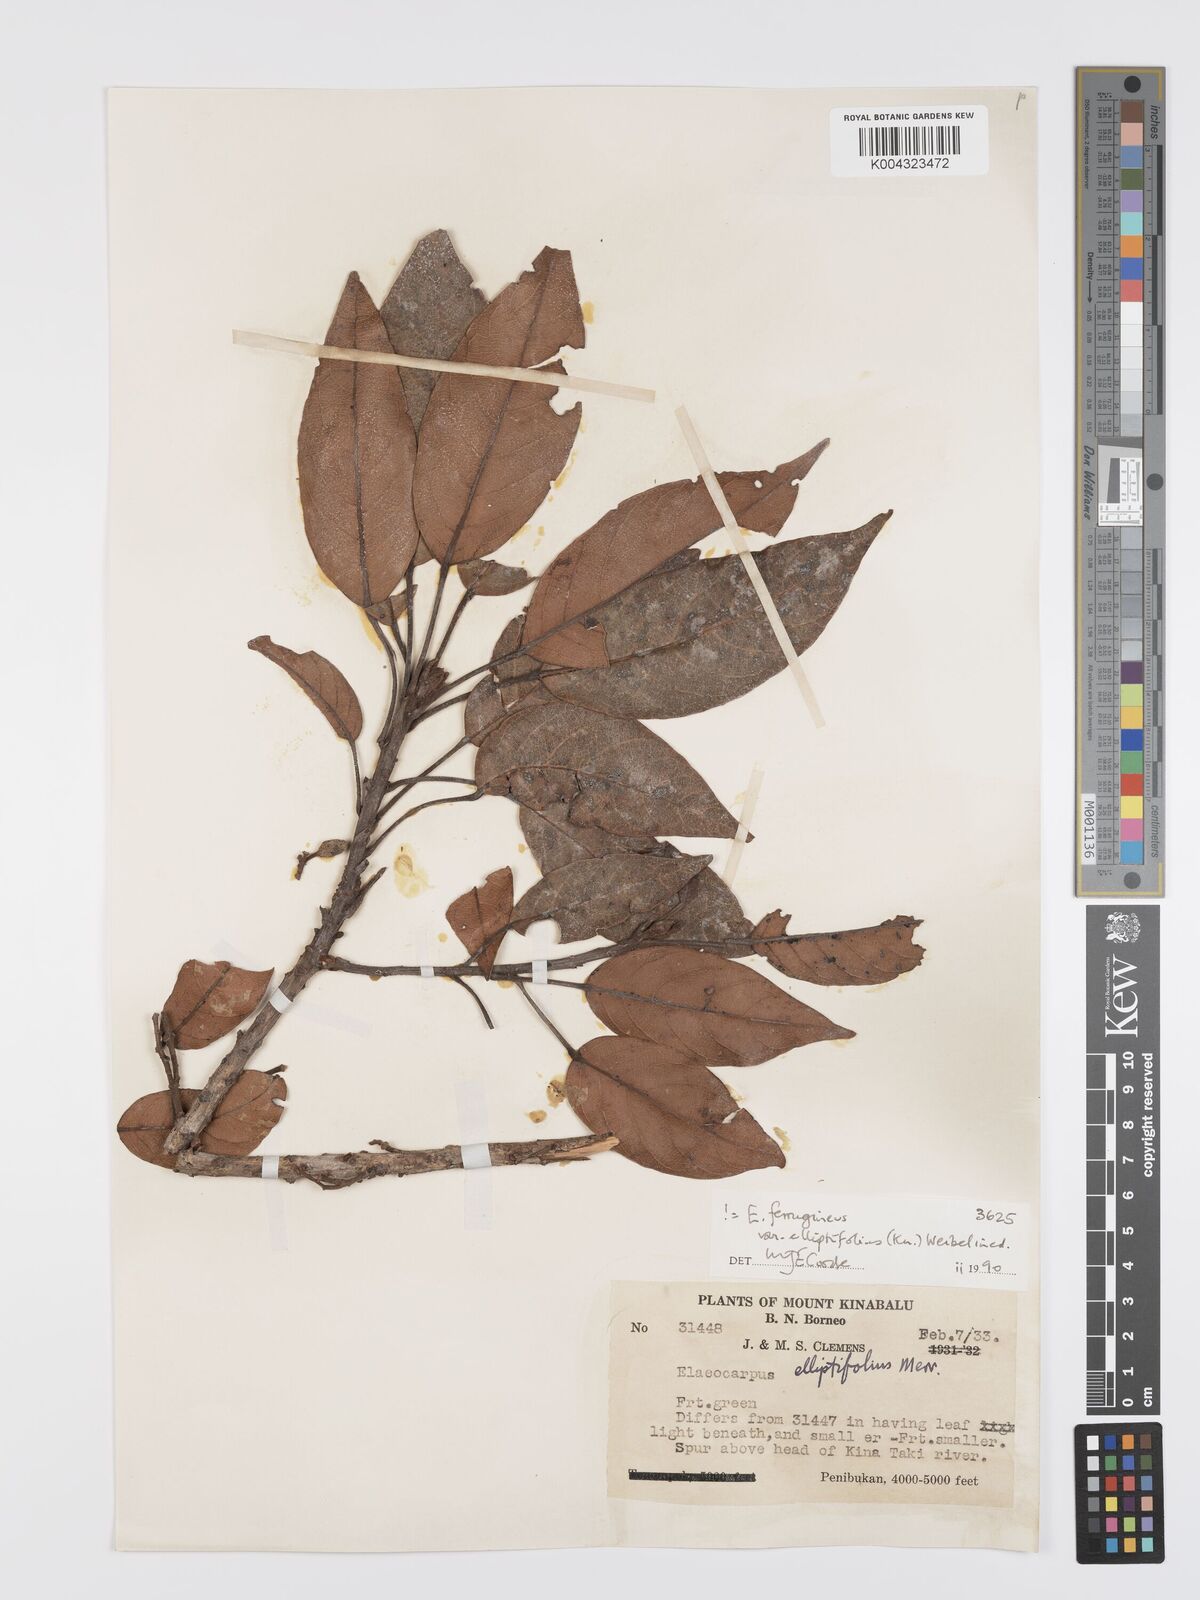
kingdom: Plantae
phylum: Tracheophyta
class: Magnoliopsida
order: Oxalidales
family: Elaeocarpaceae
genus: Elaeocarpus
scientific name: Elaeocarpus ferrugineus
